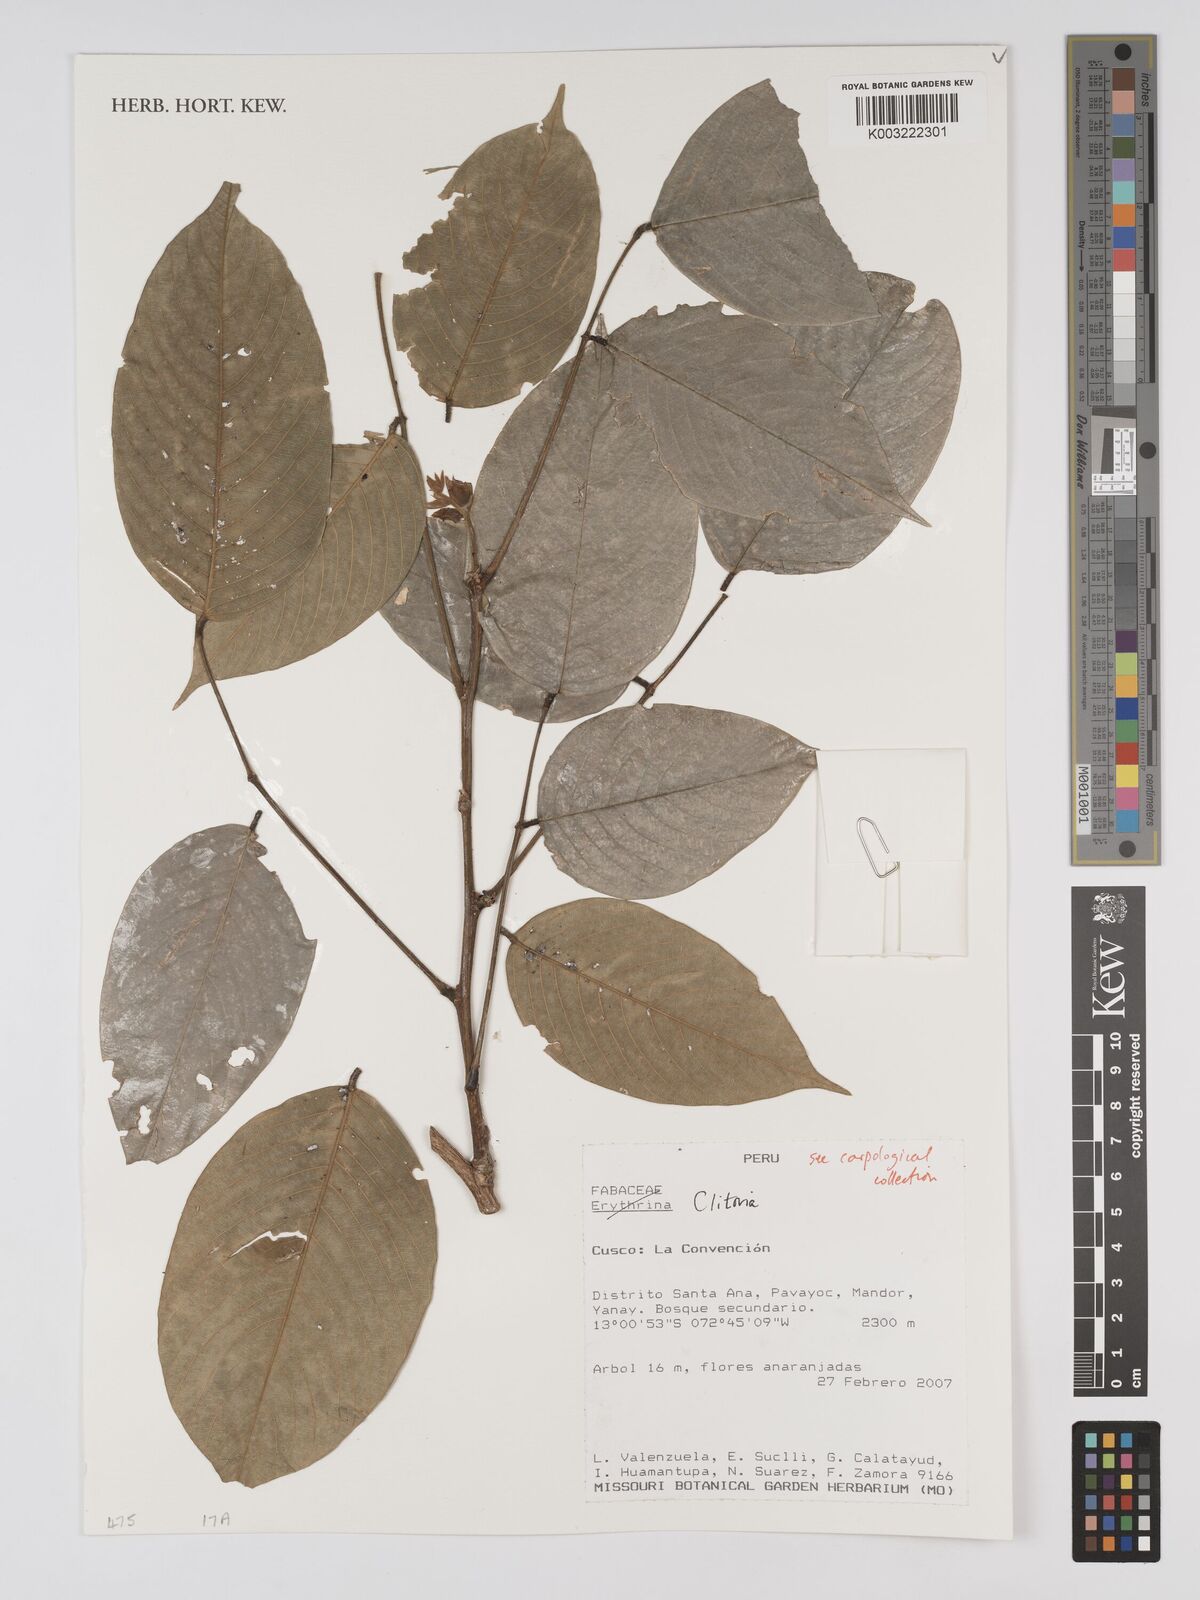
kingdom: Plantae
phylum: Tracheophyta
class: Magnoliopsida
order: Fabales
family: Fabaceae
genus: Clitoria
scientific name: Clitoria
